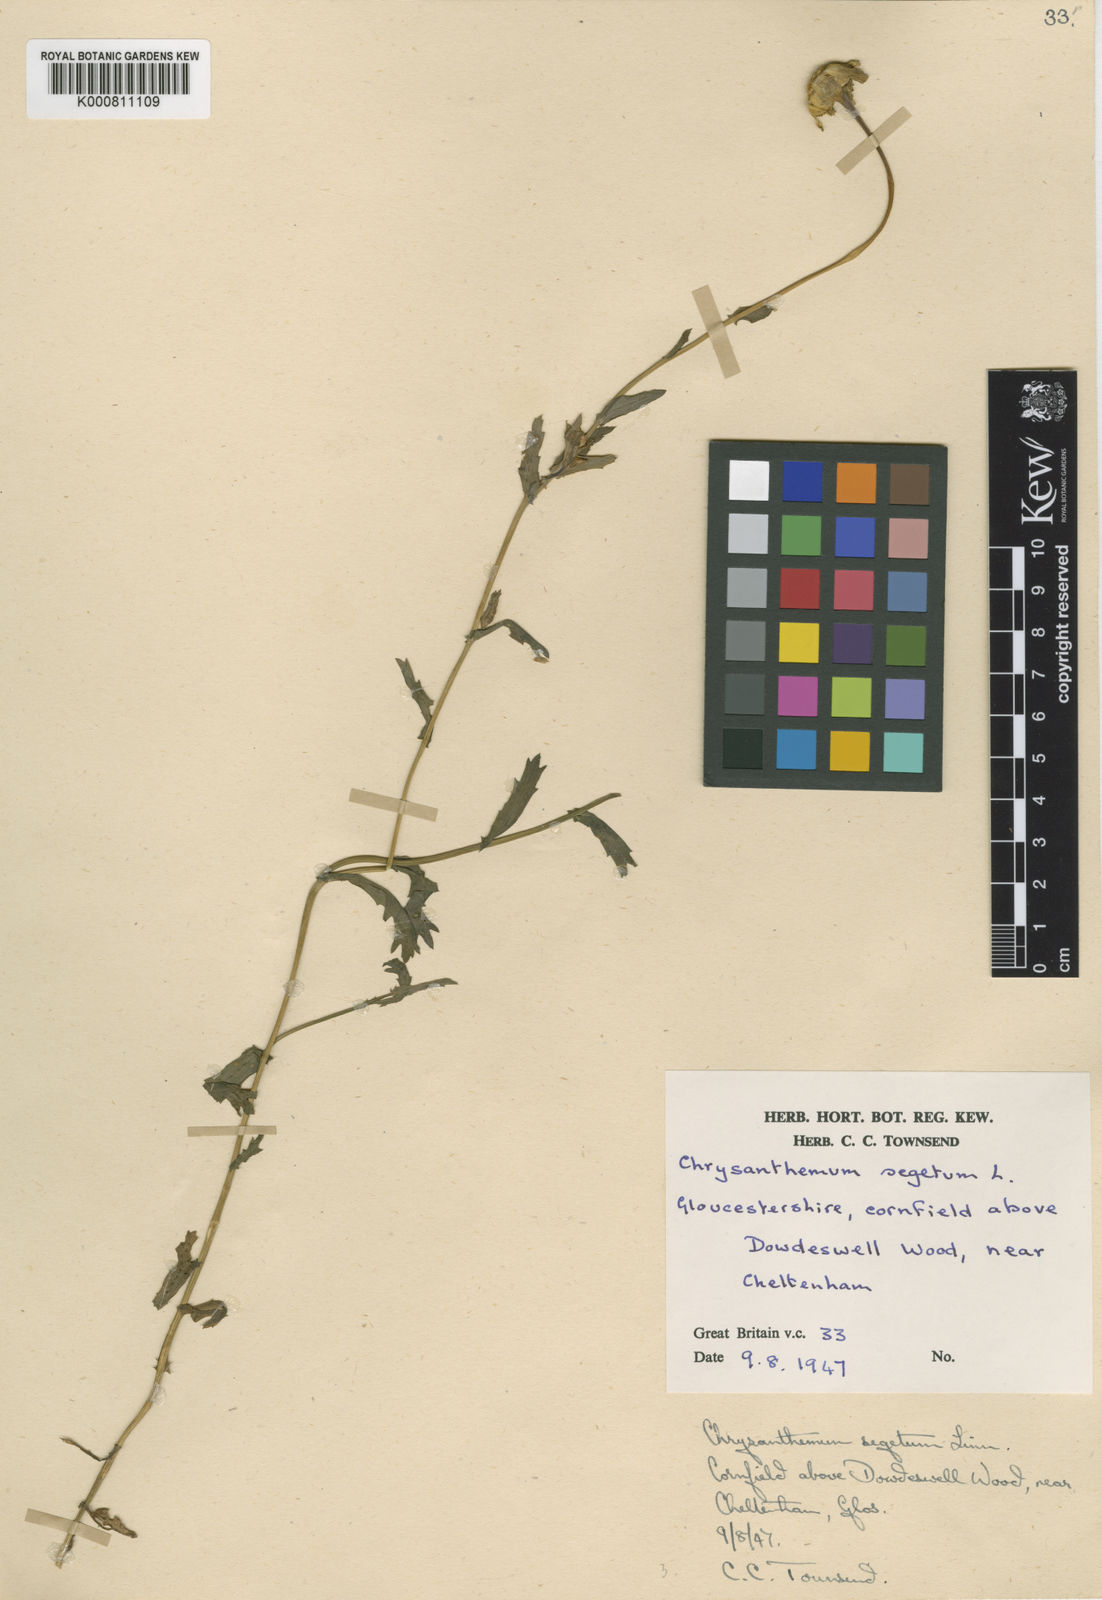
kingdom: Plantae
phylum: Tracheophyta
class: Magnoliopsida
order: Asterales
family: Asteraceae
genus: Glebionis
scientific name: Glebionis
